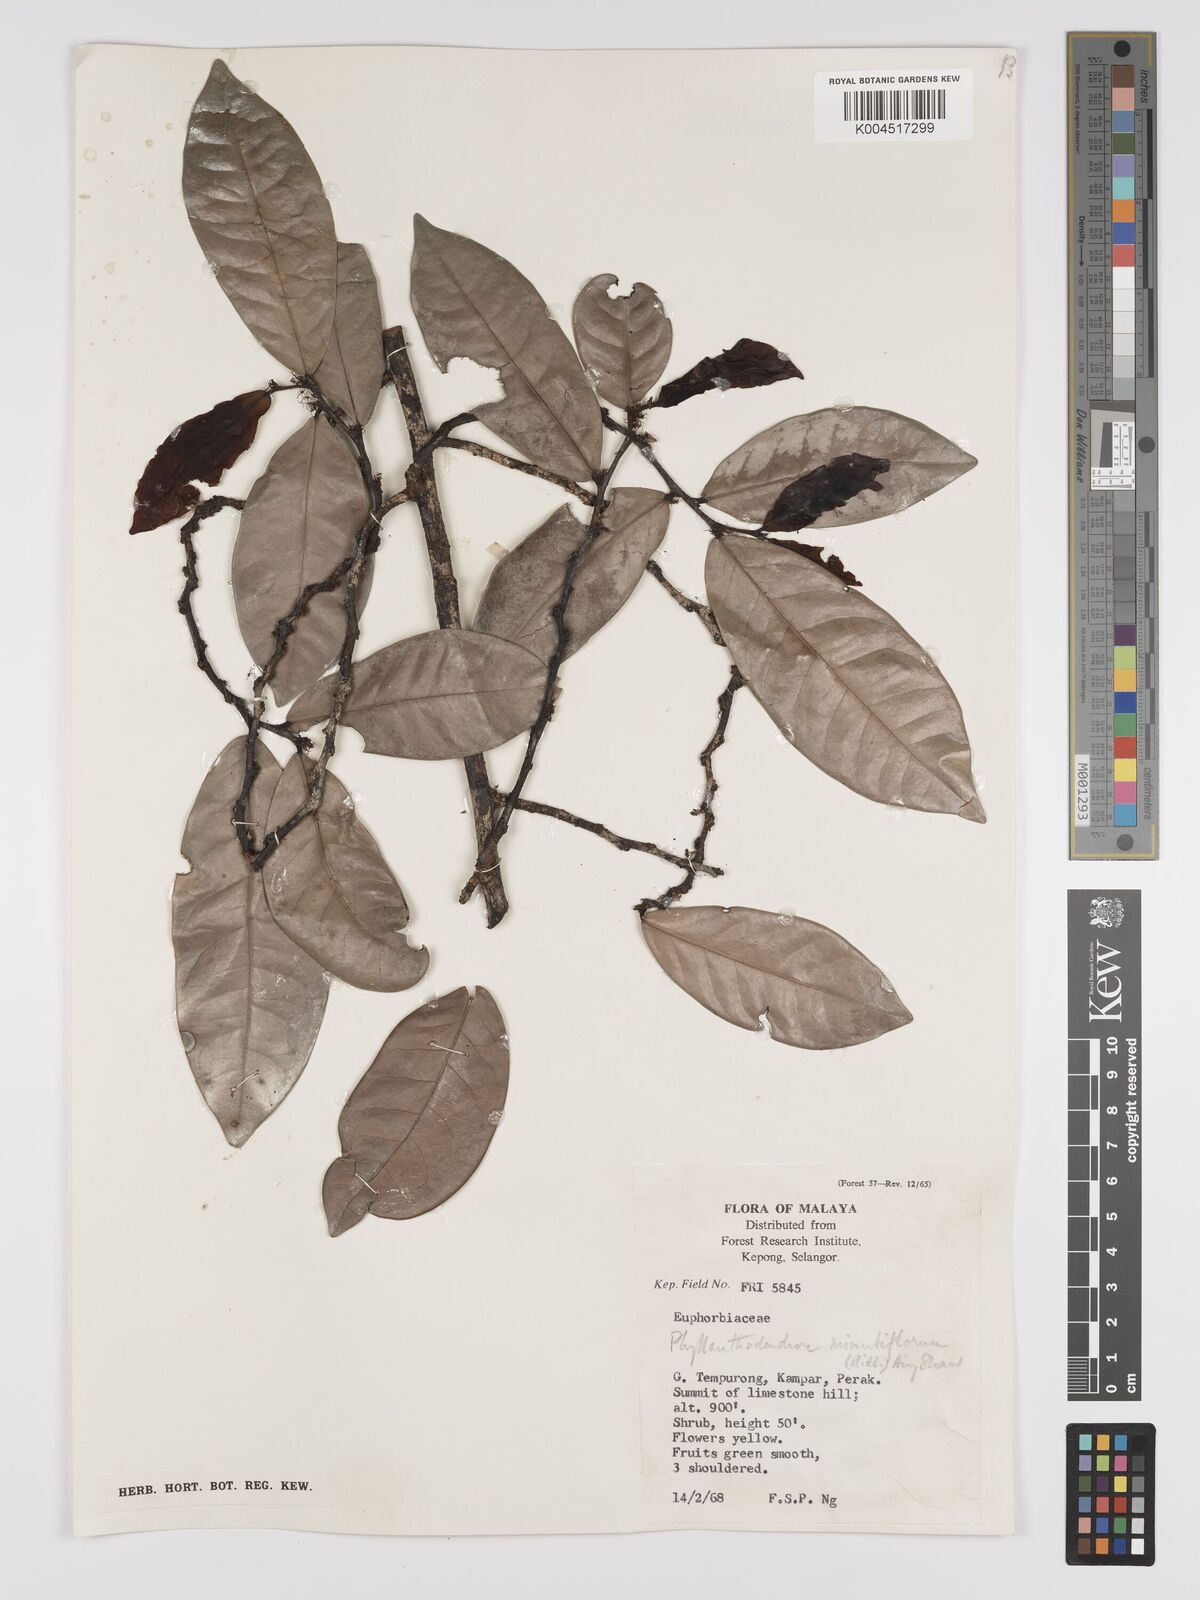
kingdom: Plantae
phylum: Tracheophyta
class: Magnoliopsida
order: Malpighiales
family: Phyllanthaceae
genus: Phyllanthus
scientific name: Phyllanthus ridleyanus
